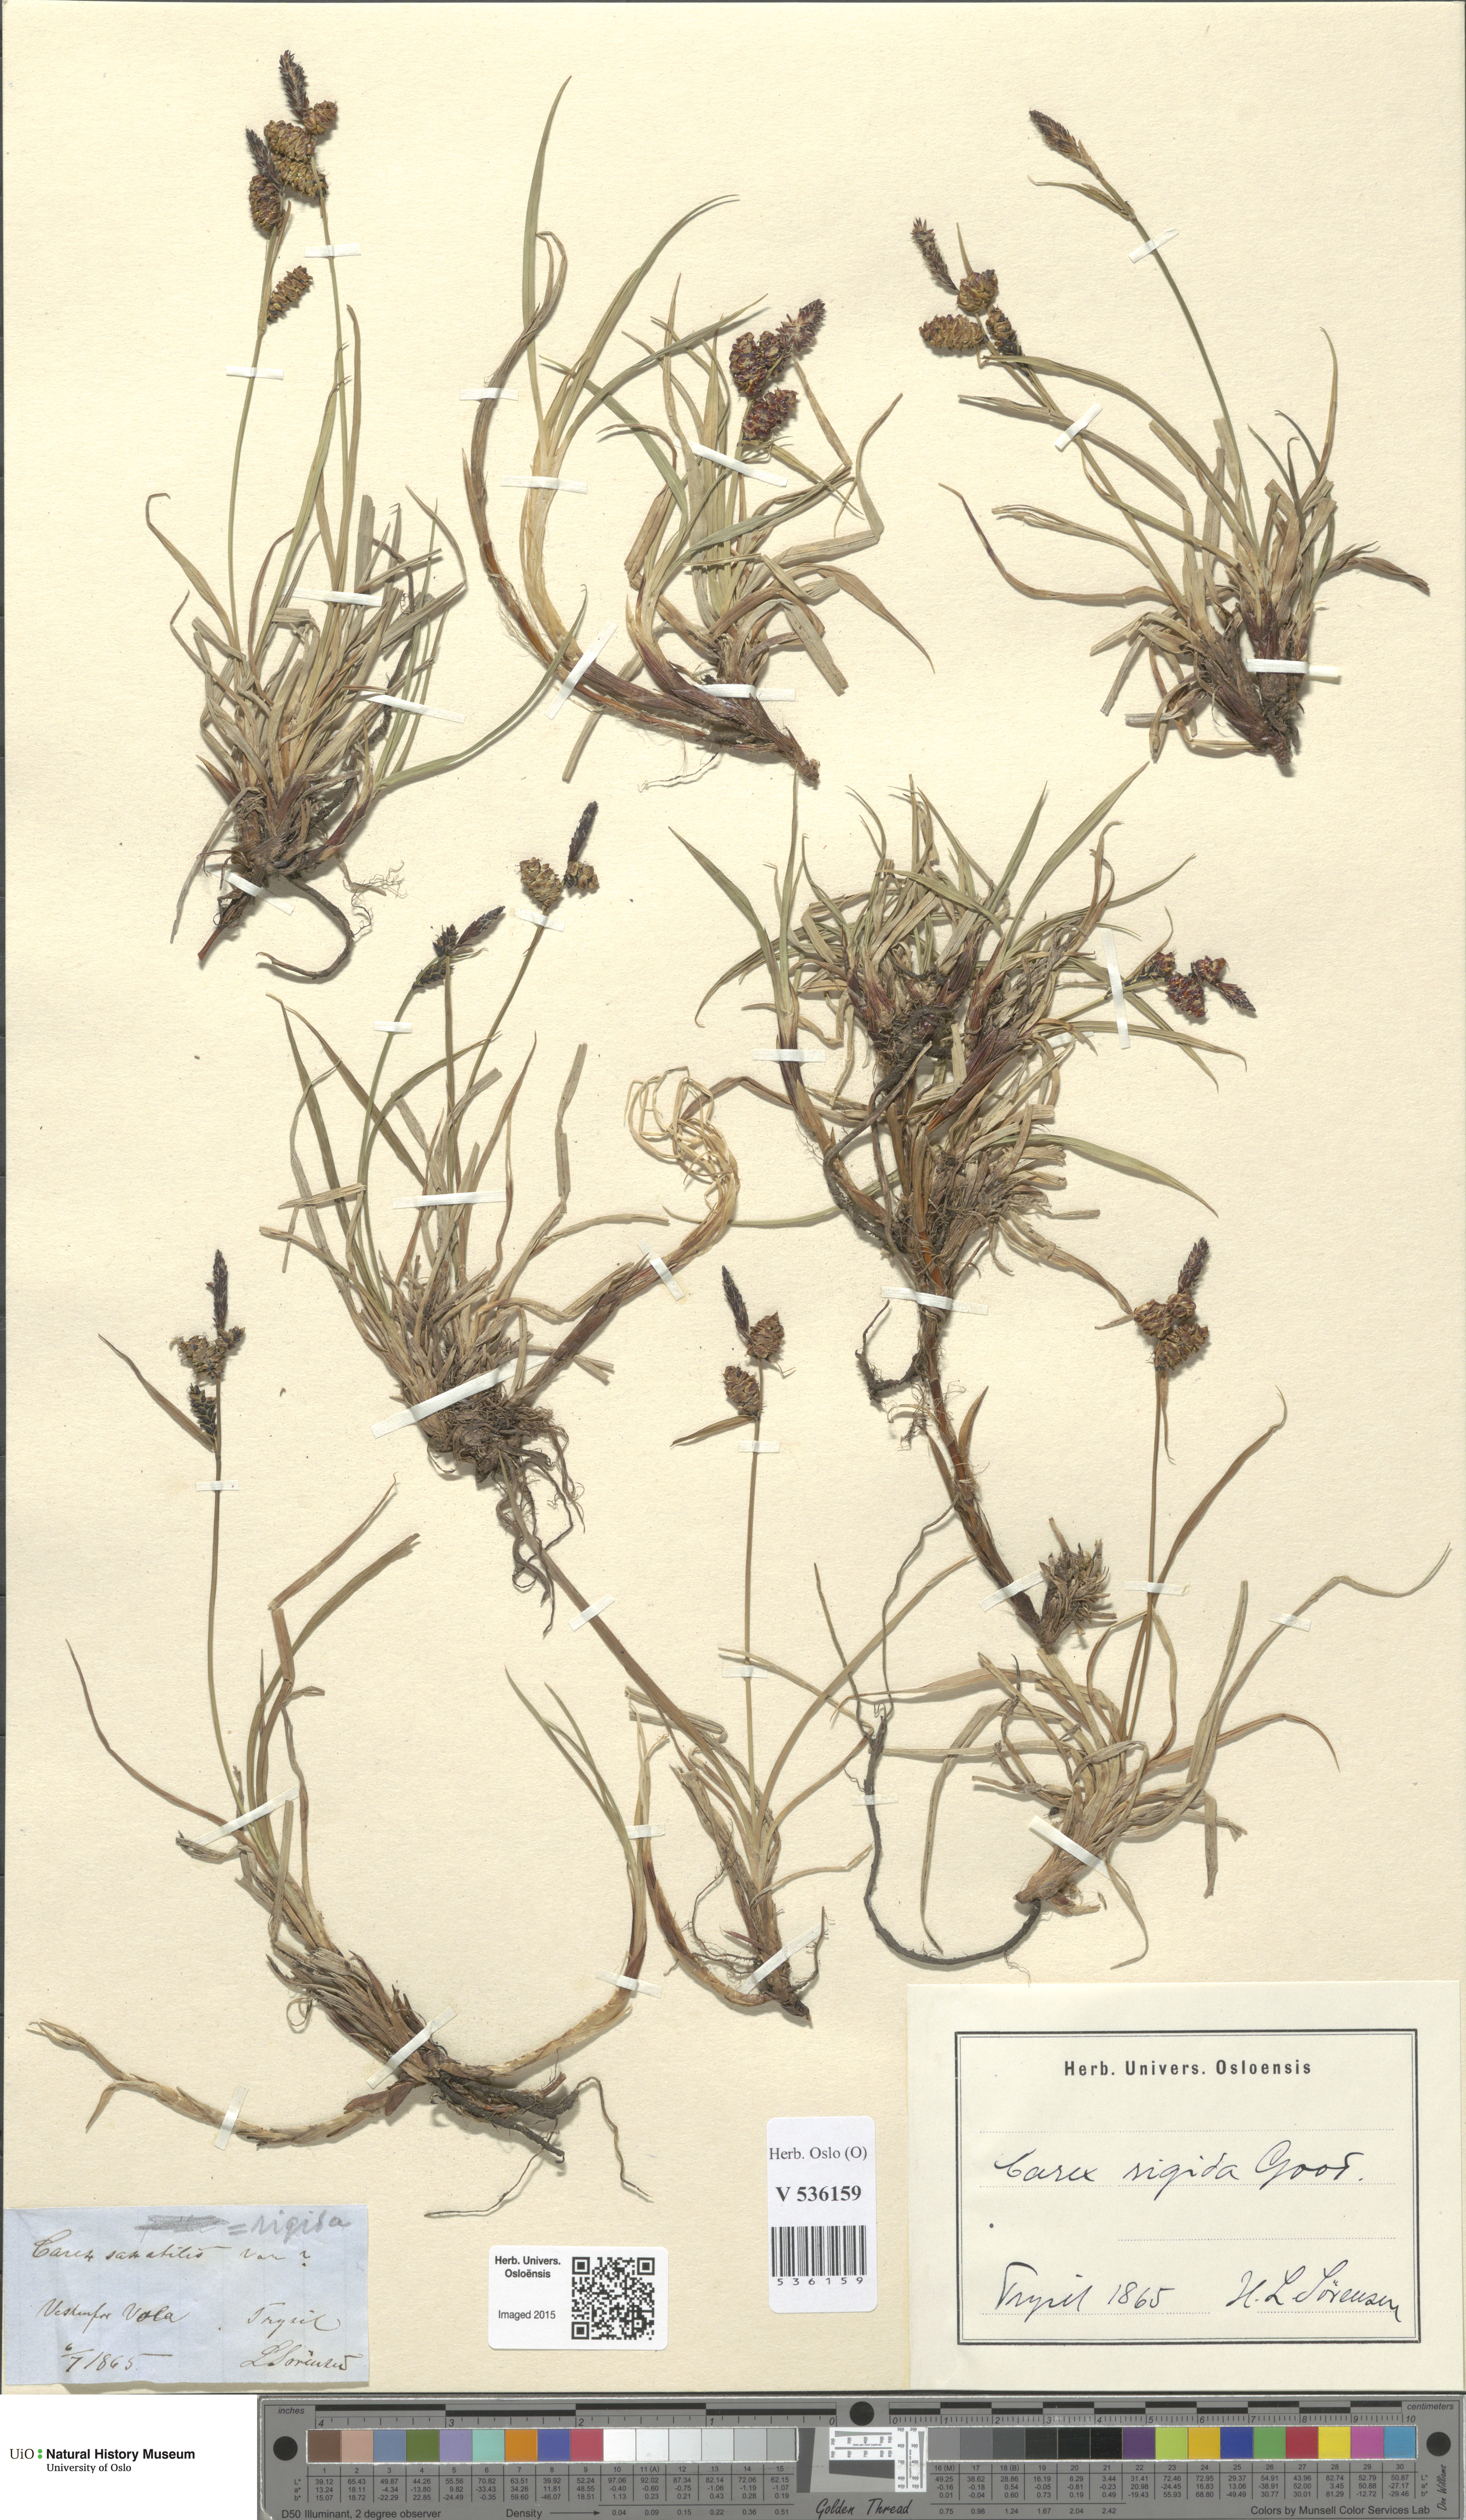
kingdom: Plantae
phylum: Tracheophyta
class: Liliopsida
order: Poales
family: Cyperaceae
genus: Carex
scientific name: Carex bigelowii
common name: Stiff sedge
